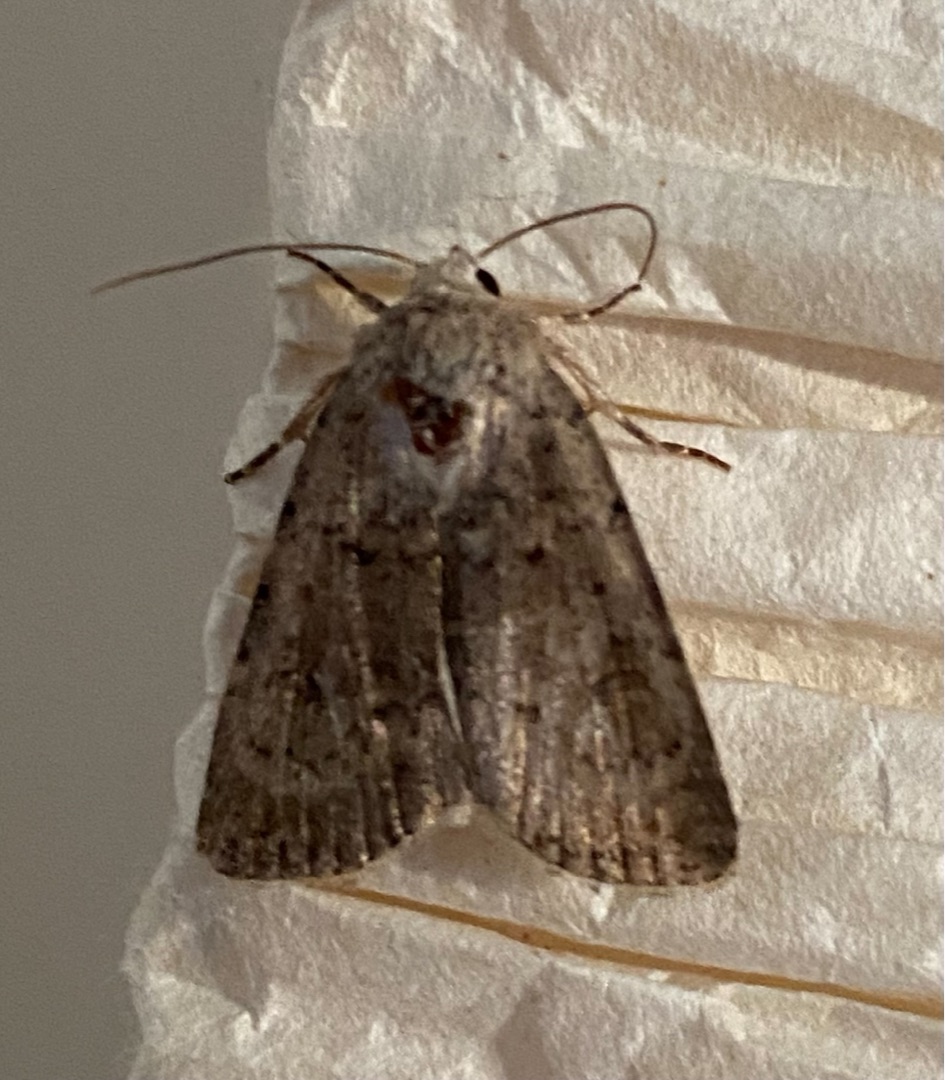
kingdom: Animalia
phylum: Arthropoda
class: Insecta
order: Lepidoptera
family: Noctuidae
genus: Caradrina
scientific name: Caradrina clavipalpis
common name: Stråtagsugle
